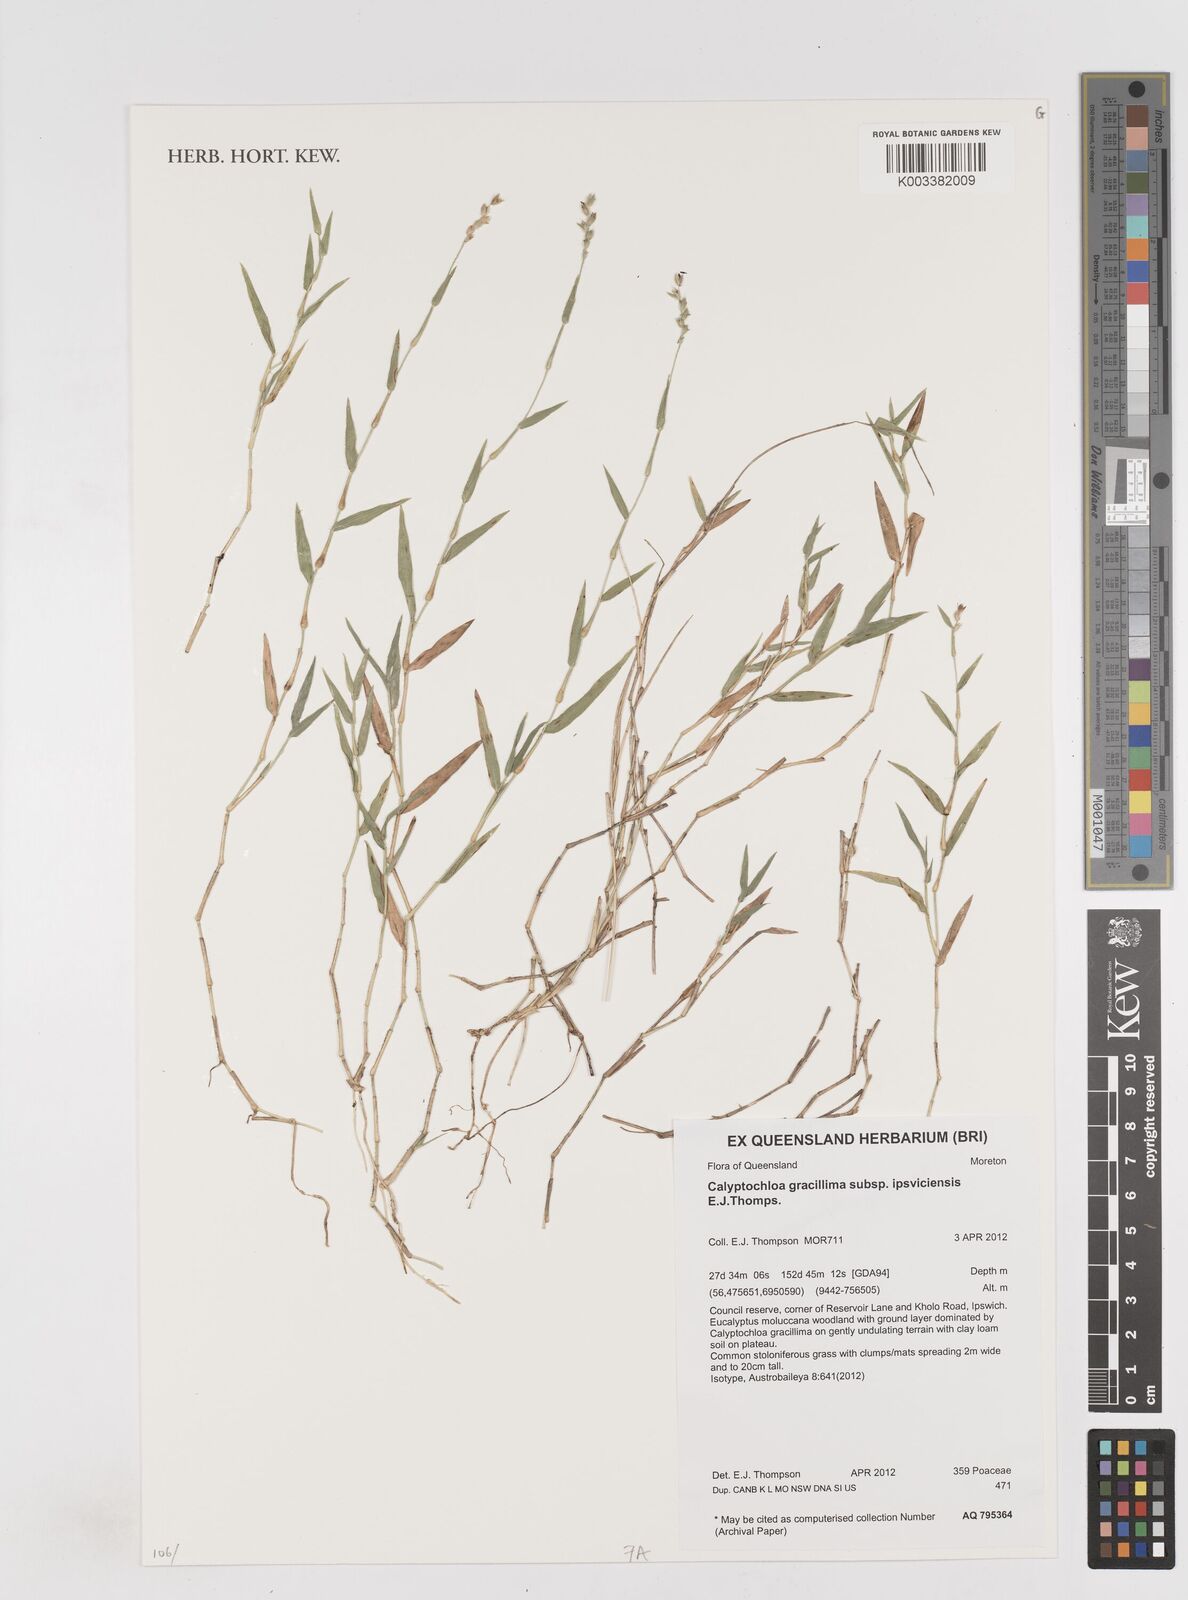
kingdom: Plantae
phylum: Tracheophyta
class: Liliopsida
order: Poales
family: Poaceae
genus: Calyptochloa
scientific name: Calyptochloa gracillima
